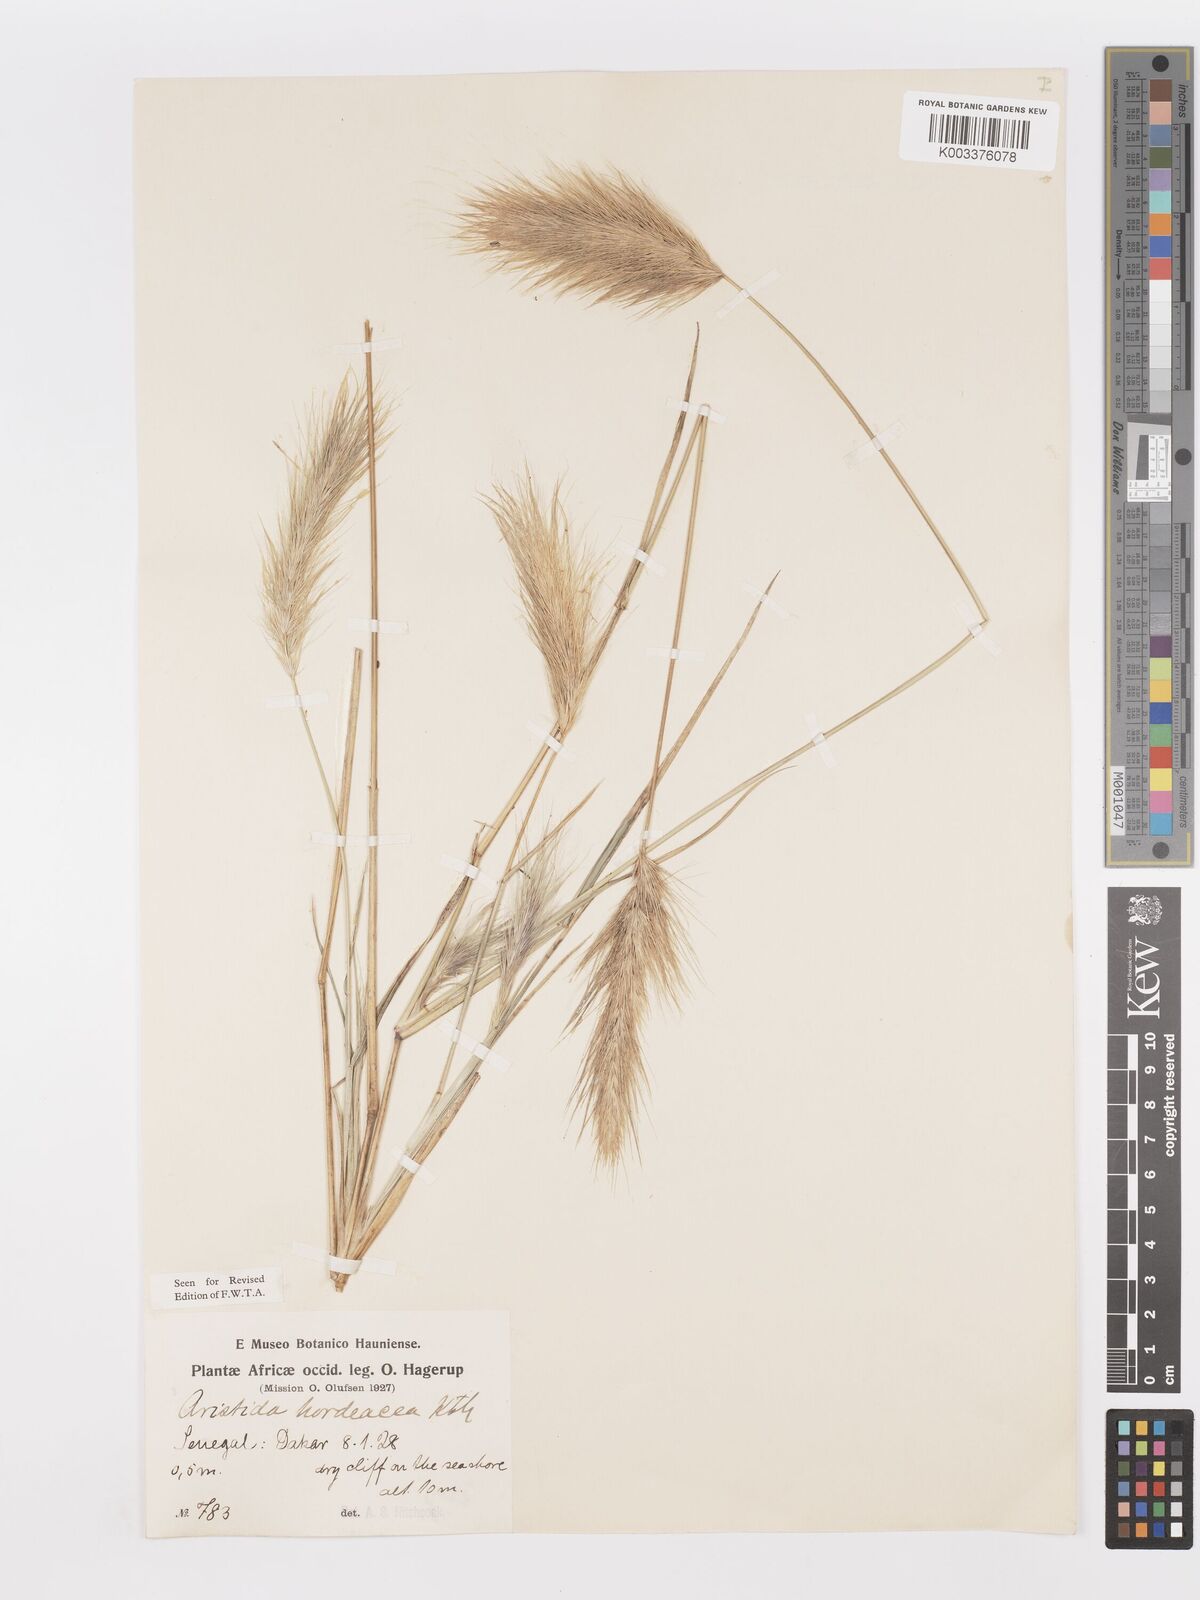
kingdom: Plantae
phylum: Tracheophyta
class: Liliopsida
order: Poales
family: Poaceae
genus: Aristida
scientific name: Aristida hordeacea
